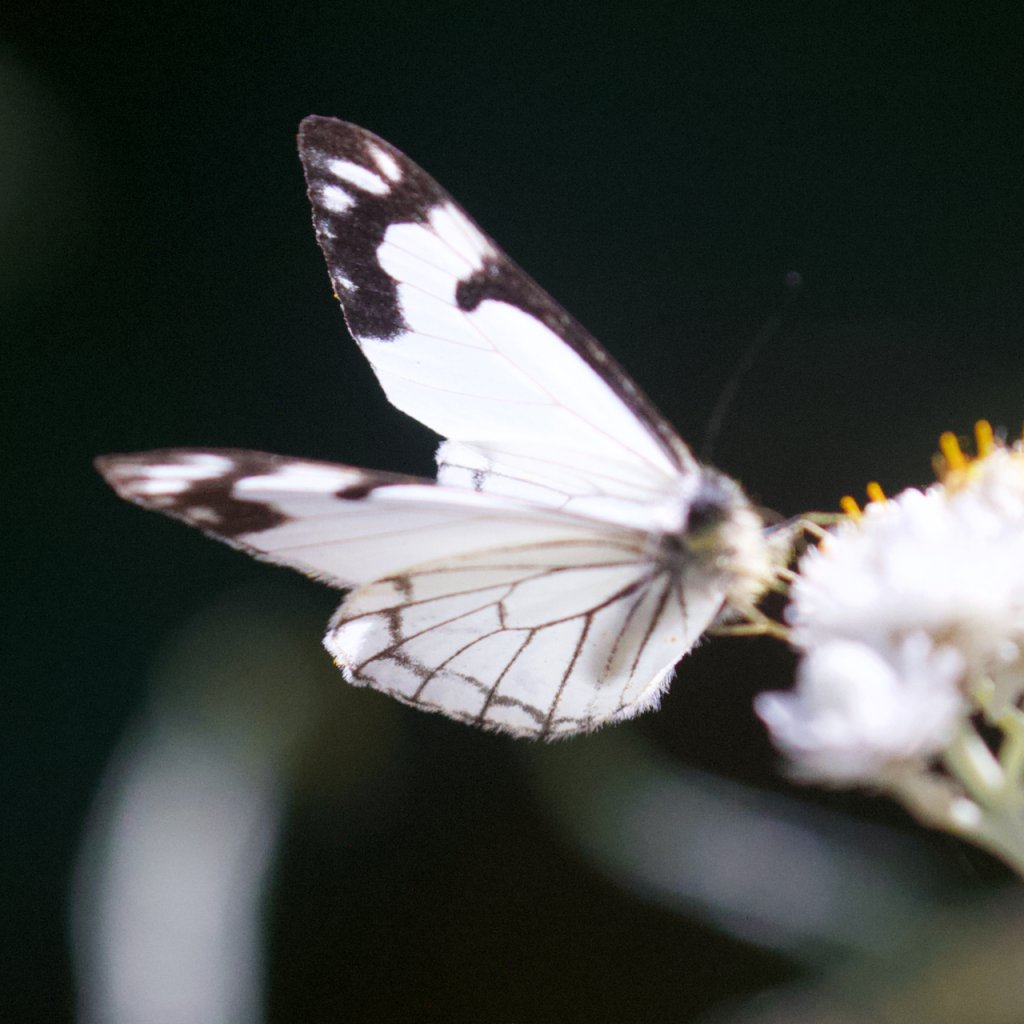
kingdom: Animalia
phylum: Arthropoda
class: Insecta
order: Lepidoptera
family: Pieridae
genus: Neophasia
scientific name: Neophasia menapia
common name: Pine White
